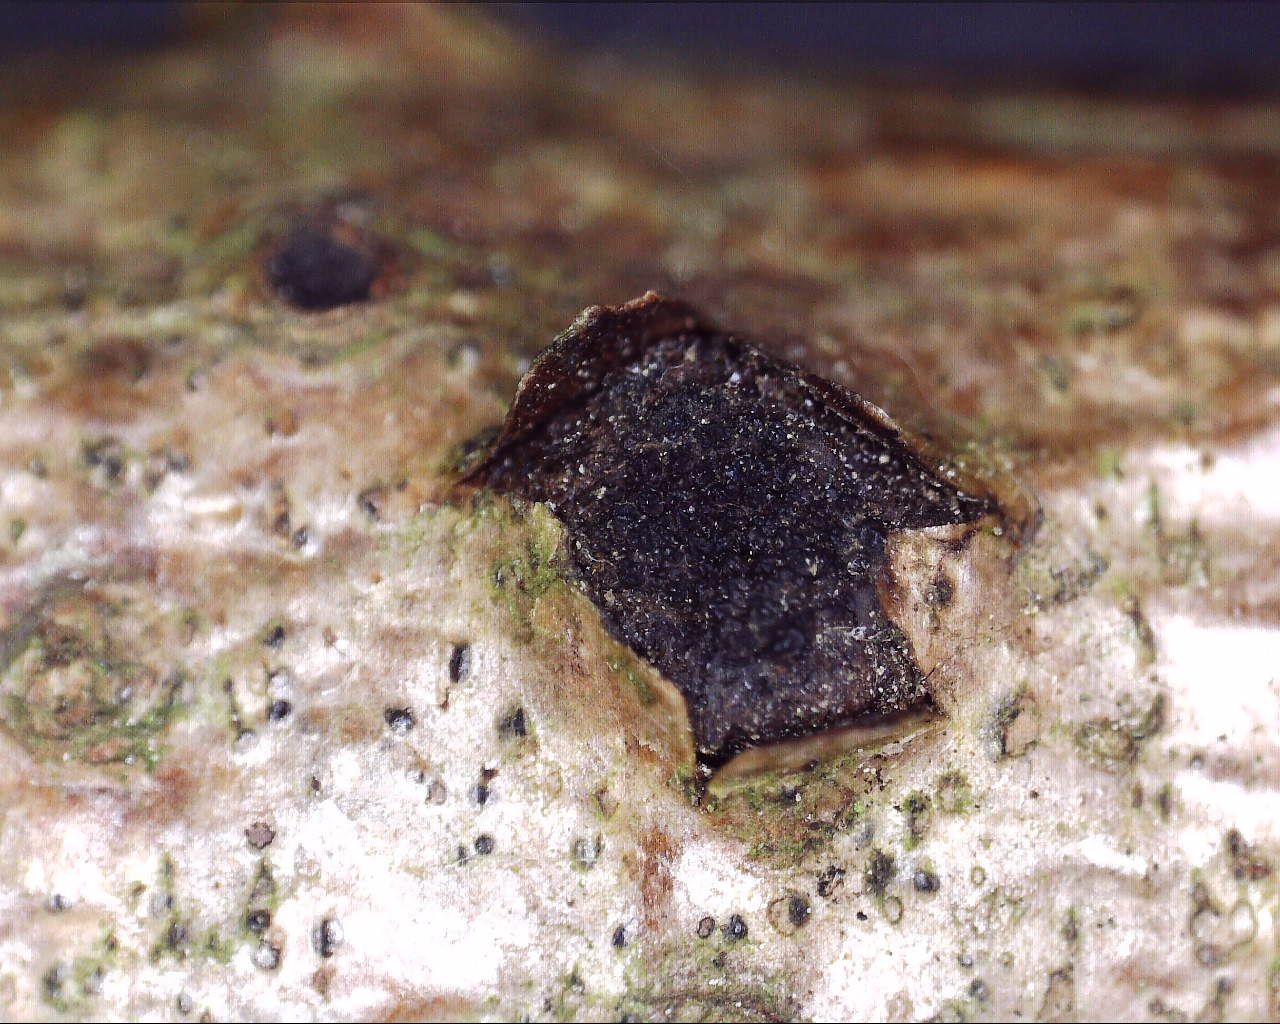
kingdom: Fungi
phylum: Ascomycota
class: Sordariomycetes
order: Xylariales
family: Diatrypaceae
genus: Eutypella
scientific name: Eutypella sorbi
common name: rønne-kulskorpe
